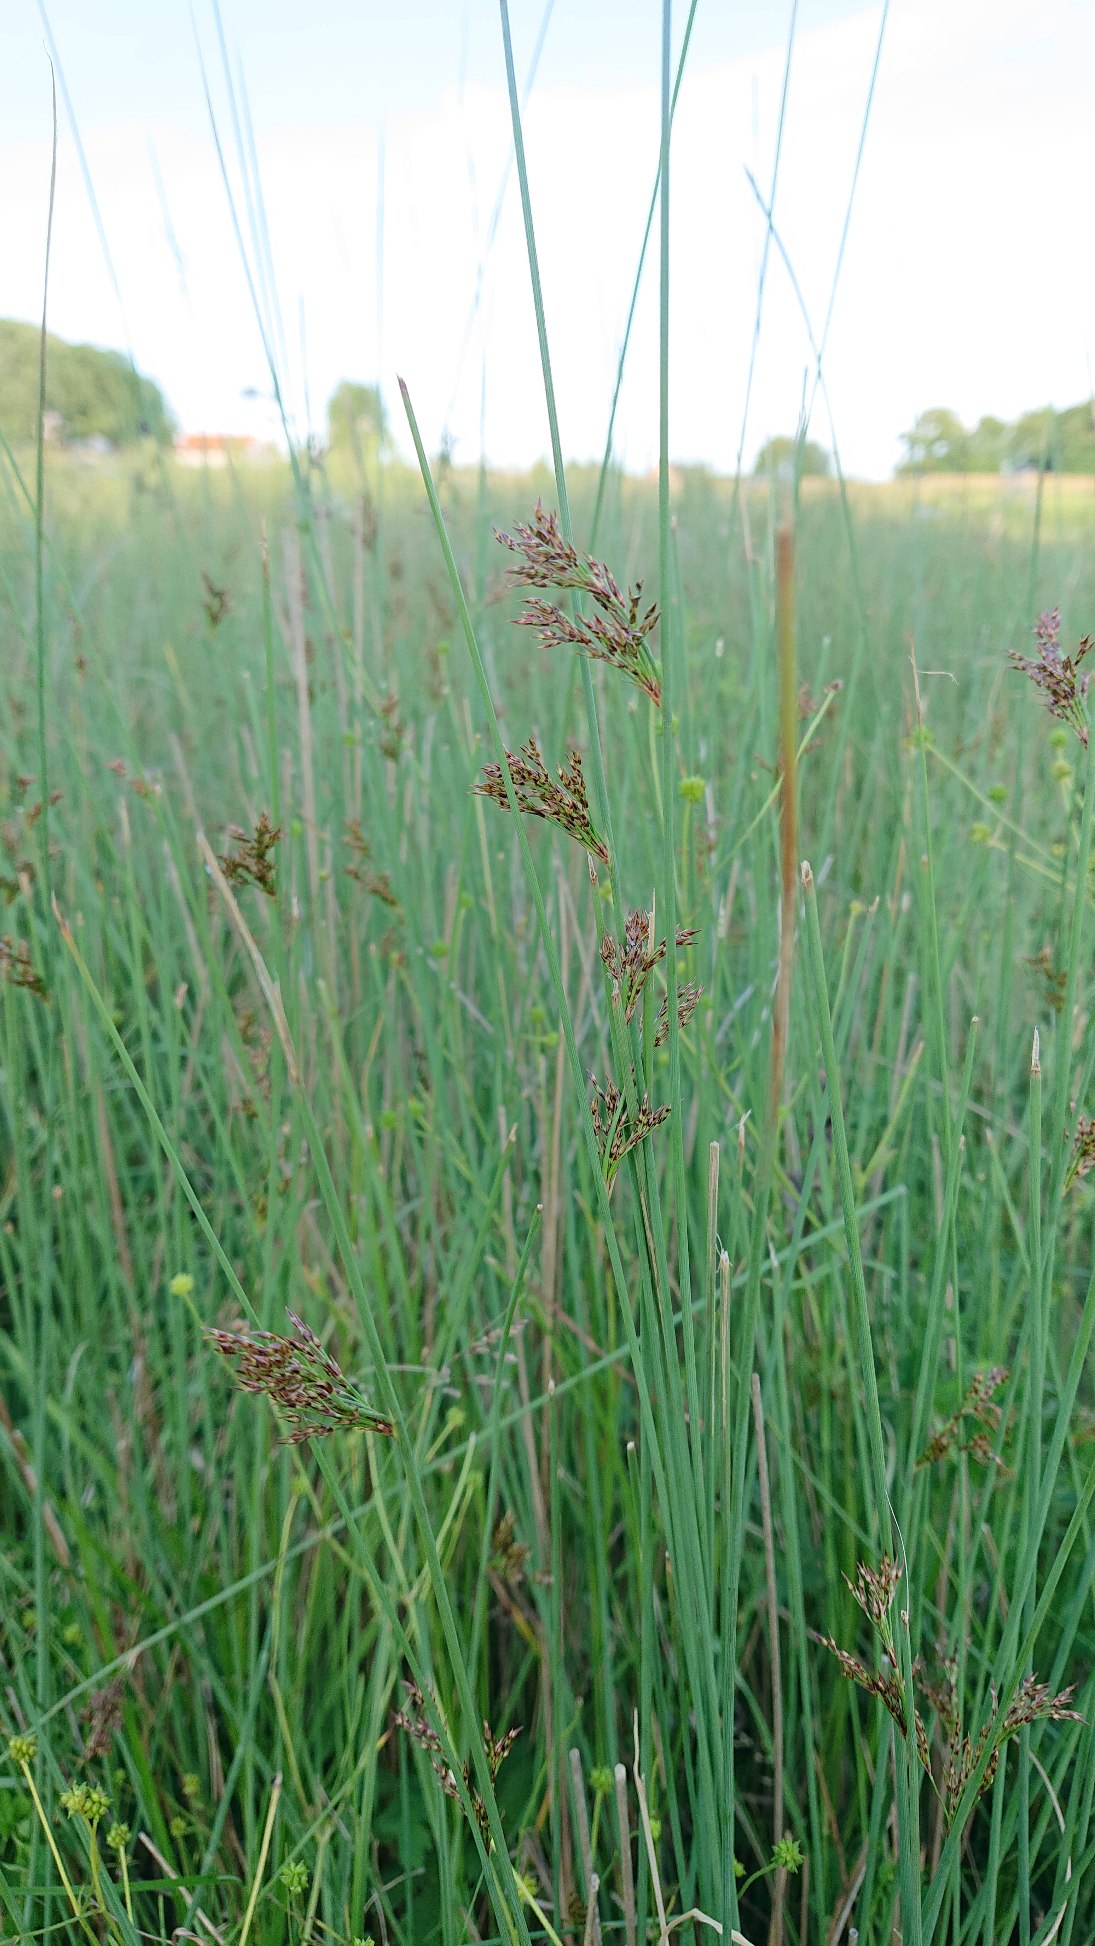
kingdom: Plantae
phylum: Tracheophyta
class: Liliopsida
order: Poales
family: Juncaceae
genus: Juncus
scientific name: Juncus inflexus
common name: Blågrå siv
